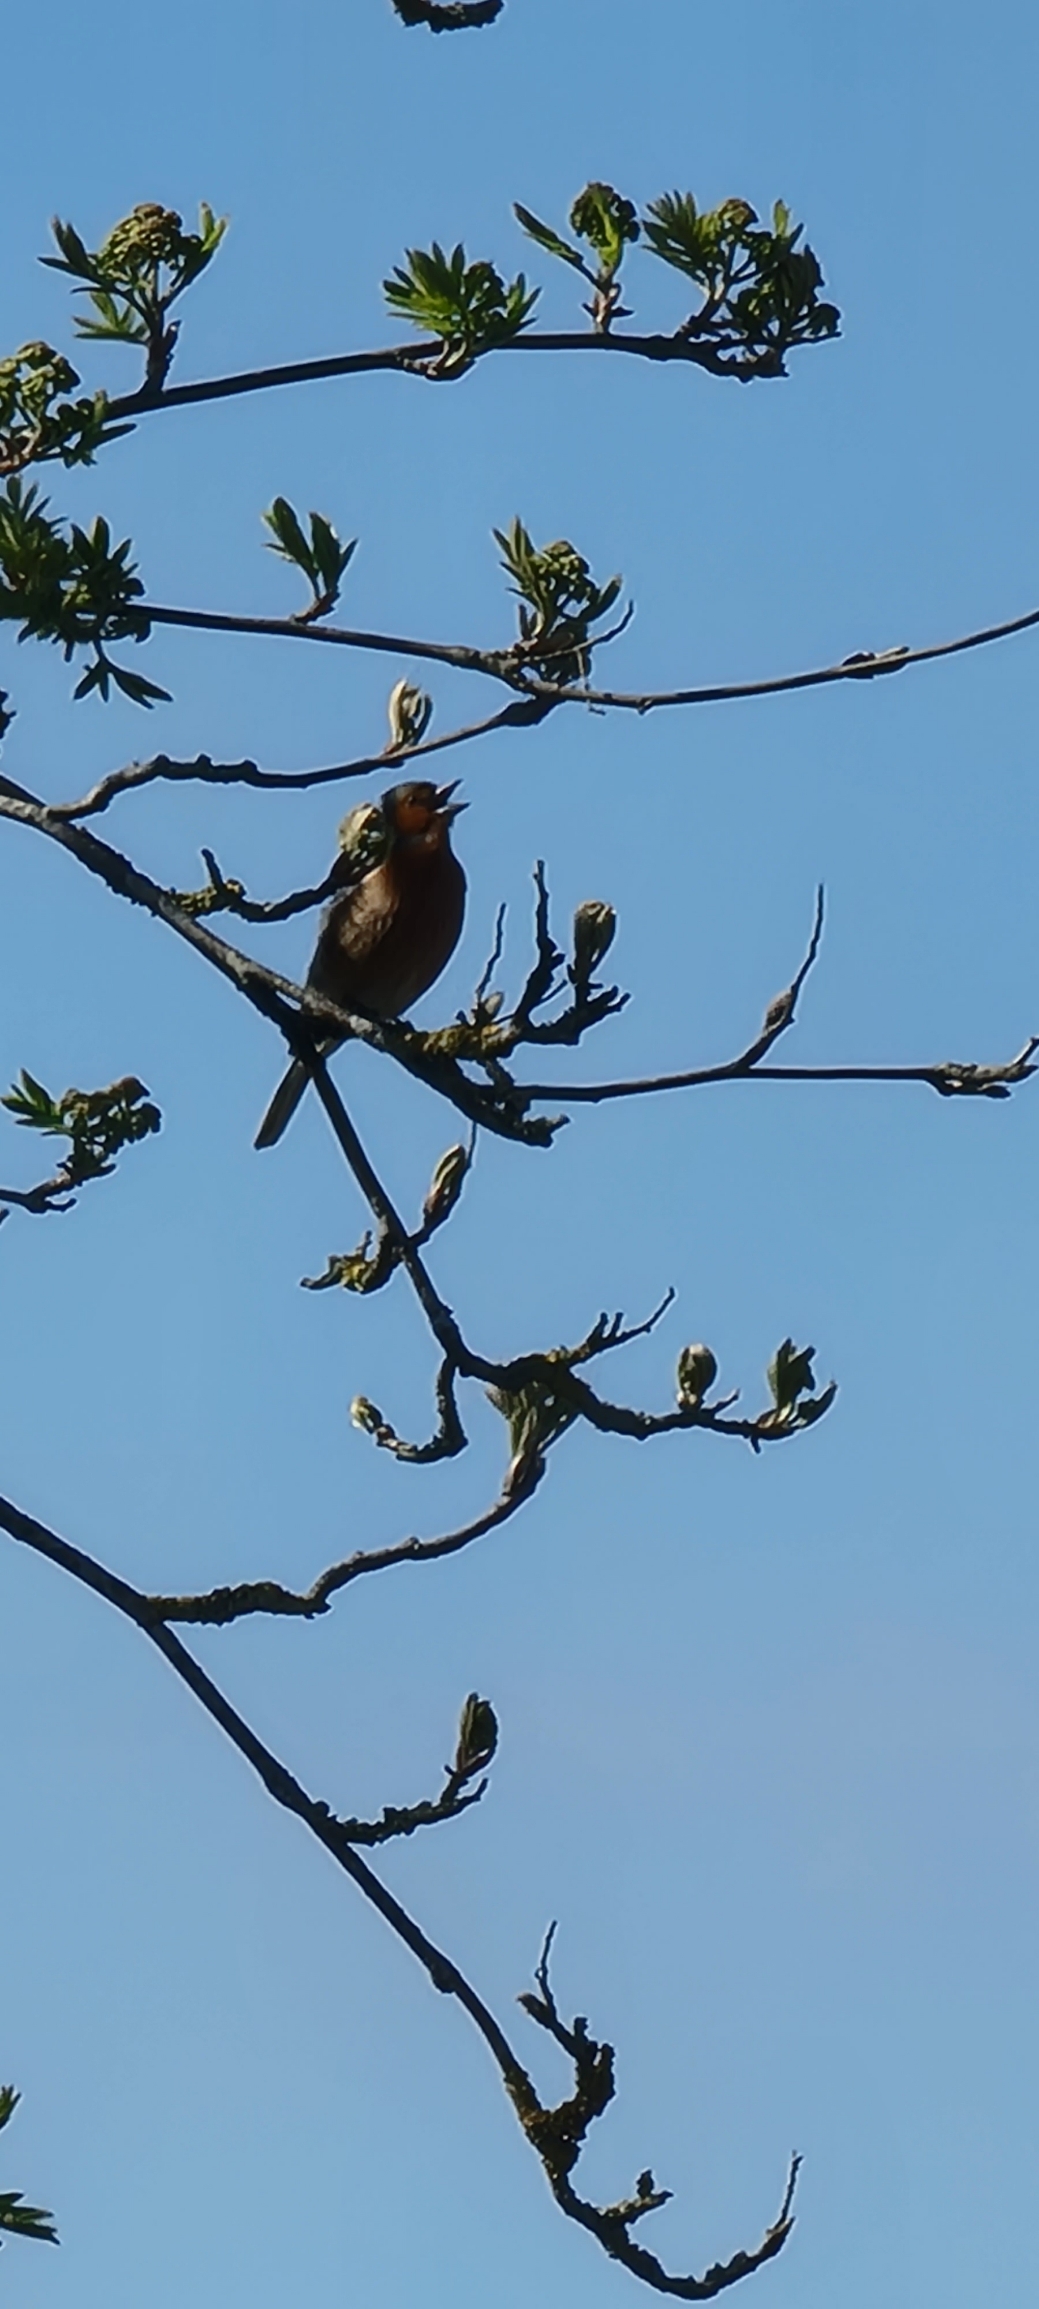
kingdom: Animalia
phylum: Chordata
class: Aves
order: Passeriformes
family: Fringillidae
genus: Fringilla
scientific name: Fringilla coelebs
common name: Bogfinke
